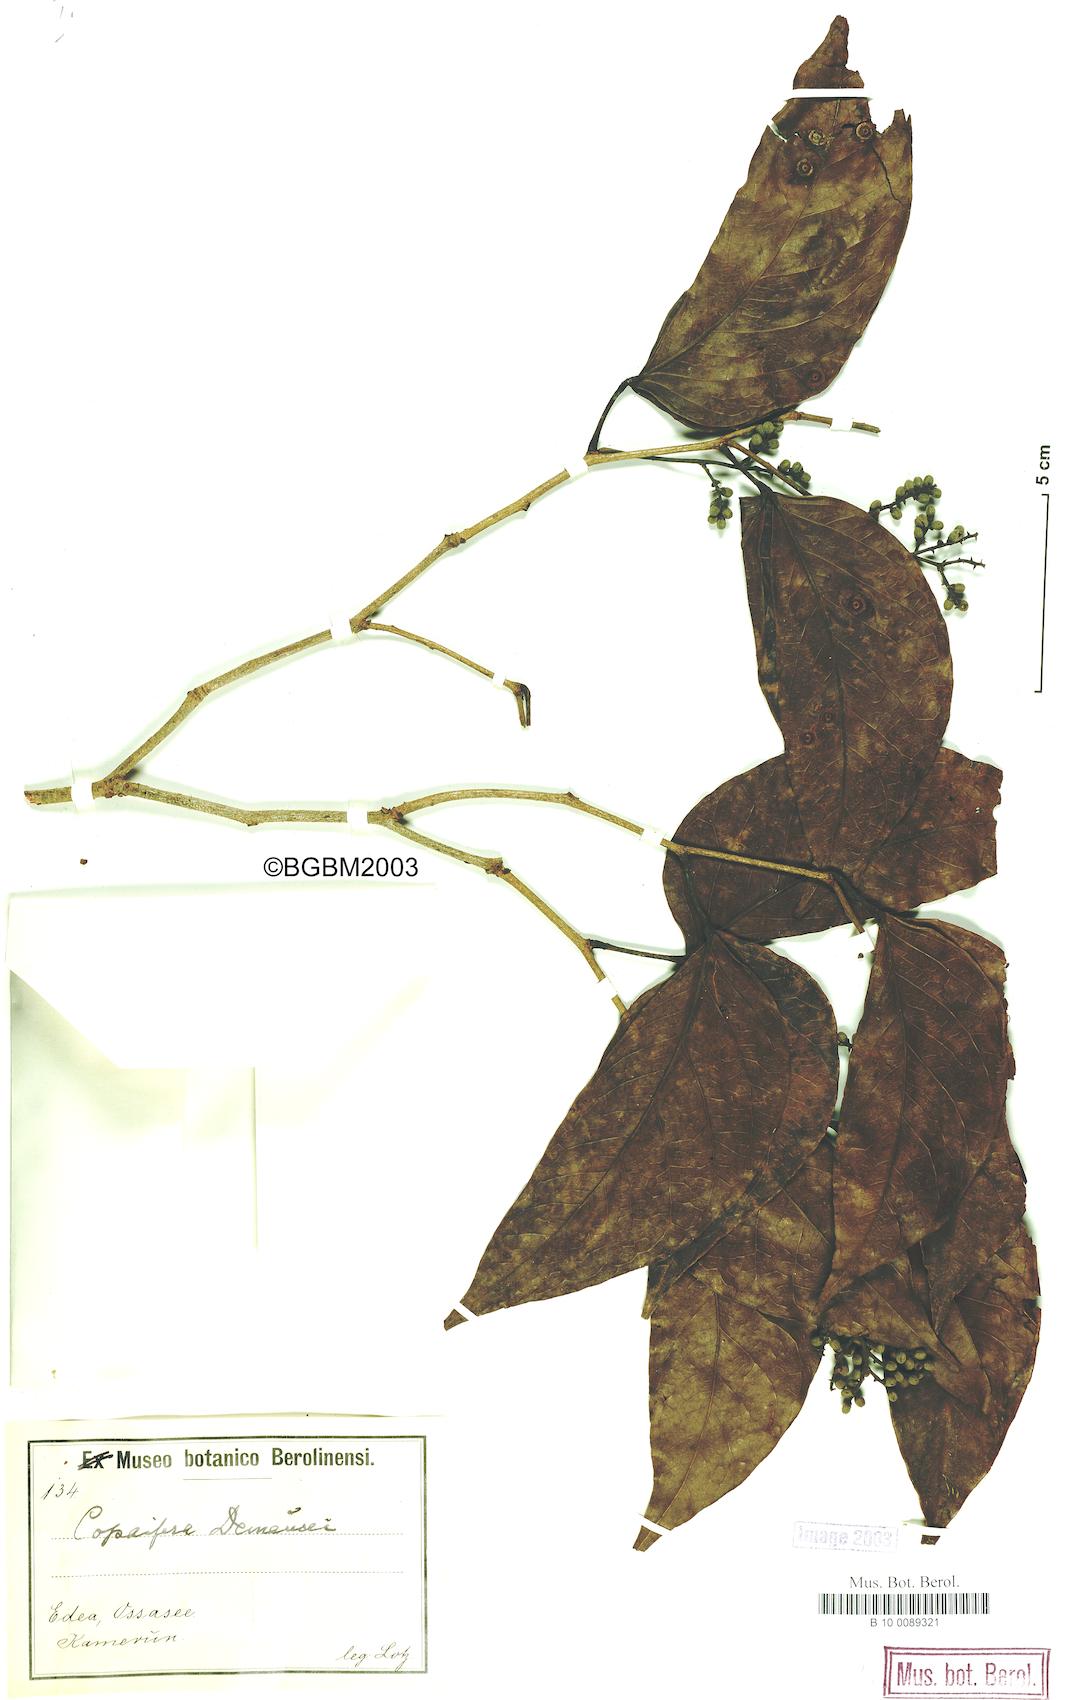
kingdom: Plantae
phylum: Tracheophyta
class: Magnoliopsida
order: Fabales
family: Fabaceae
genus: Guibourtia
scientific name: Guibourtia demeusei
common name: African rosewood
